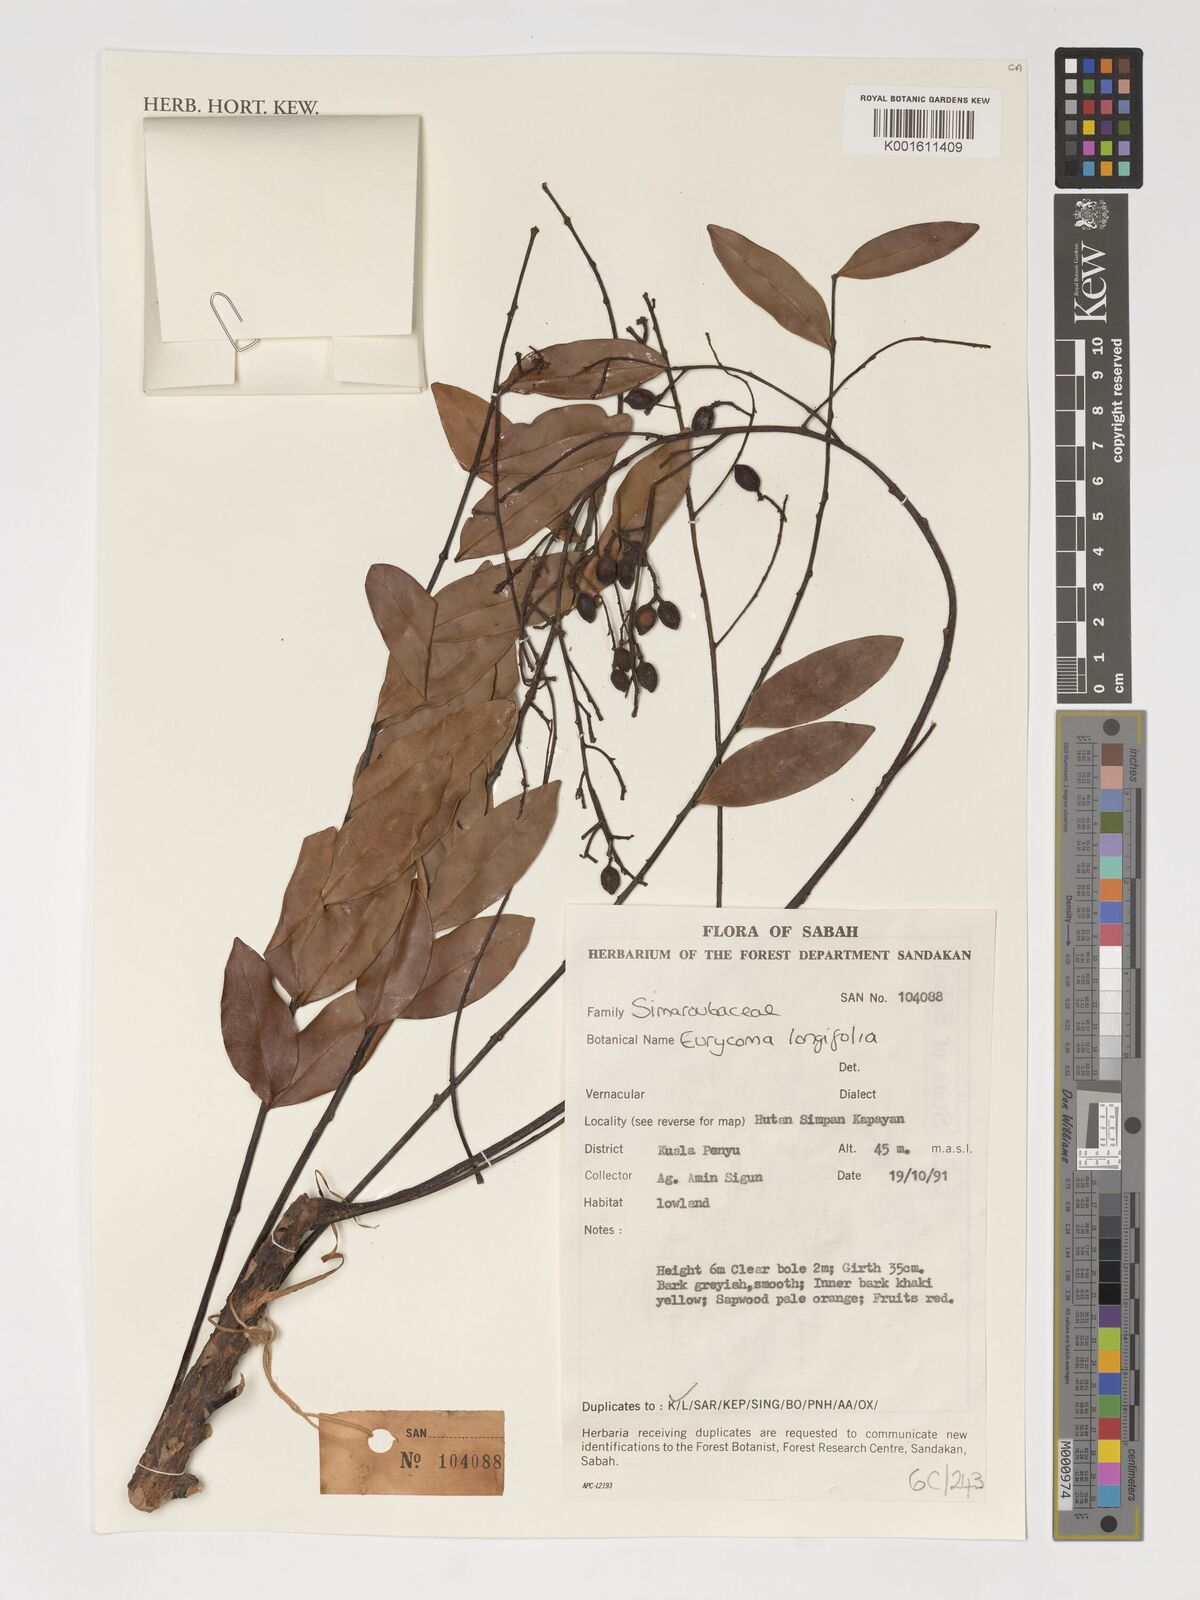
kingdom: Plantae
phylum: Tracheophyta
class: Magnoliopsida
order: Sapindales
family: Simaroubaceae
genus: Eurycoma
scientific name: Eurycoma longifolia
